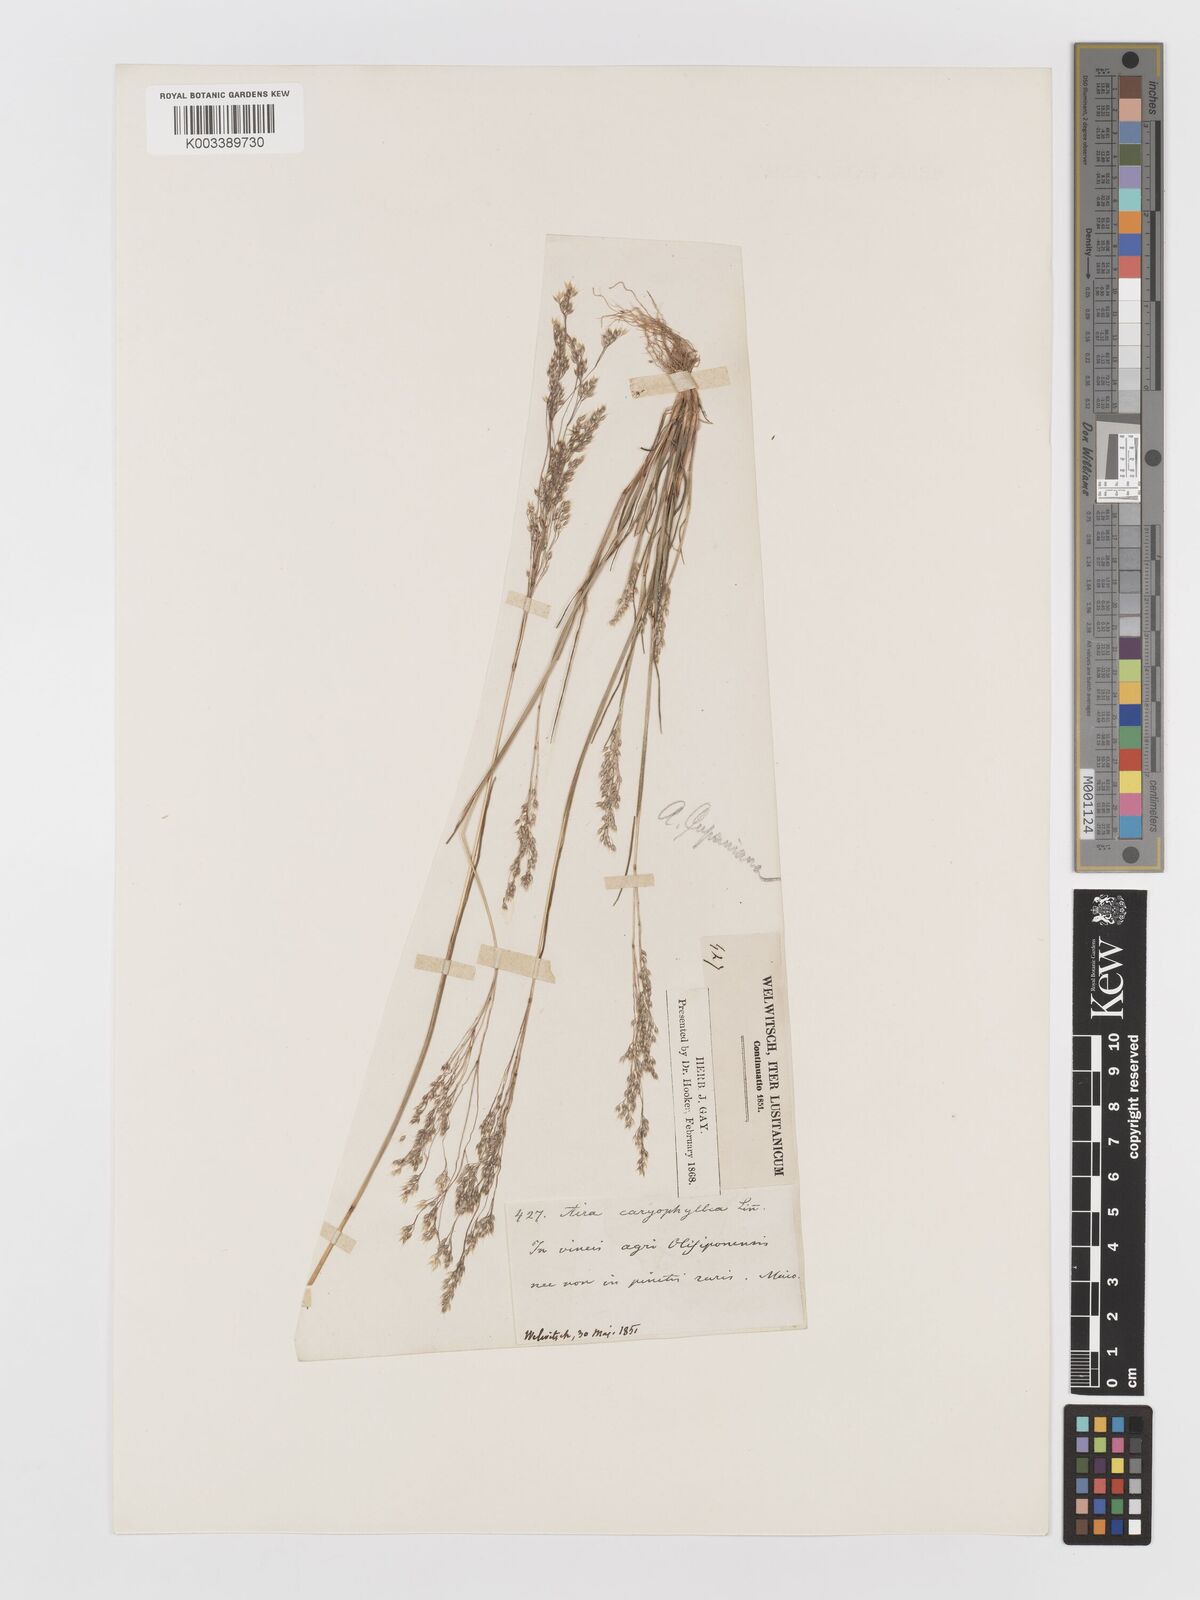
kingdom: Plantae
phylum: Tracheophyta
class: Liliopsida
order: Poales
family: Poaceae
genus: Aira
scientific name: Aira caryophyllea
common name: Silver hairgrass
